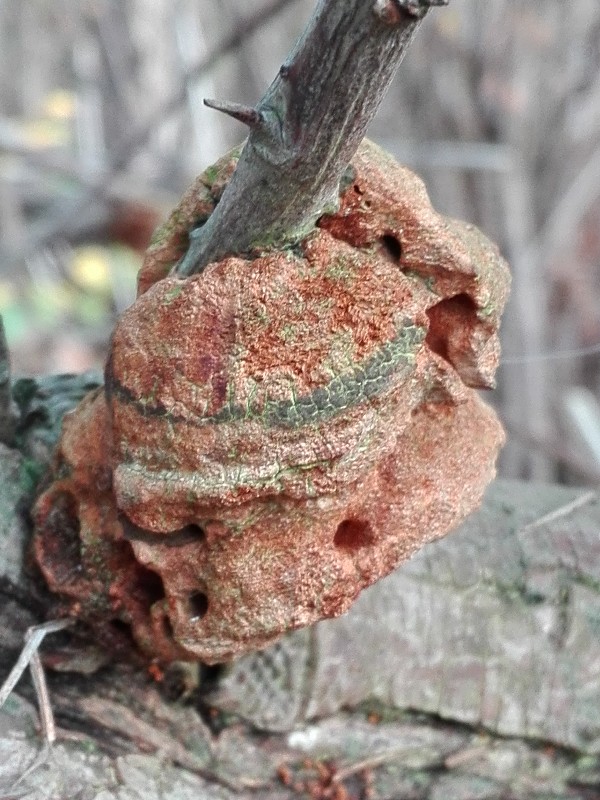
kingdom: Fungi
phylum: Basidiomycota
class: Agaricomycetes
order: Hymenochaetales
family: Hymenochaetaceae
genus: Fomitiporia
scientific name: Fomitiporia hippophaeicola
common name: havtorn-ildporesvamp
